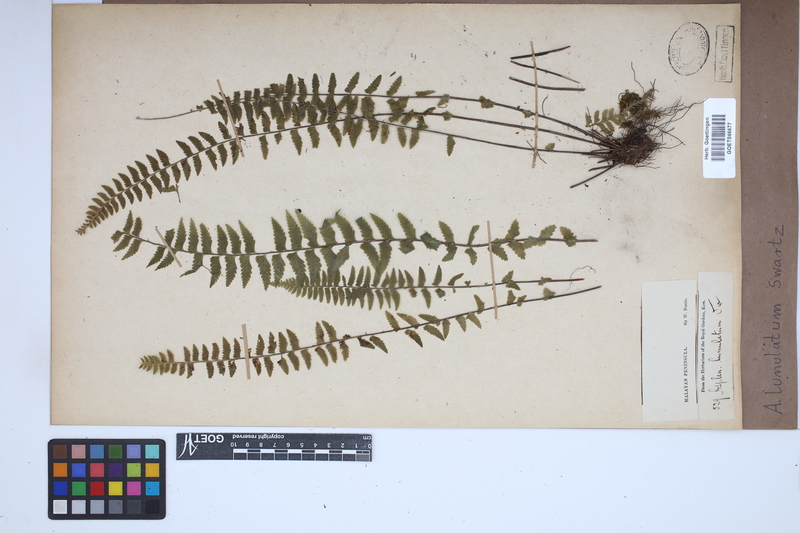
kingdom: Plantae
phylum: Tracheophyta
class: Polypodiopsida
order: Polypodiales
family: Aspleniaceae
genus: Asplenium
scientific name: Asplenium lunulatum
